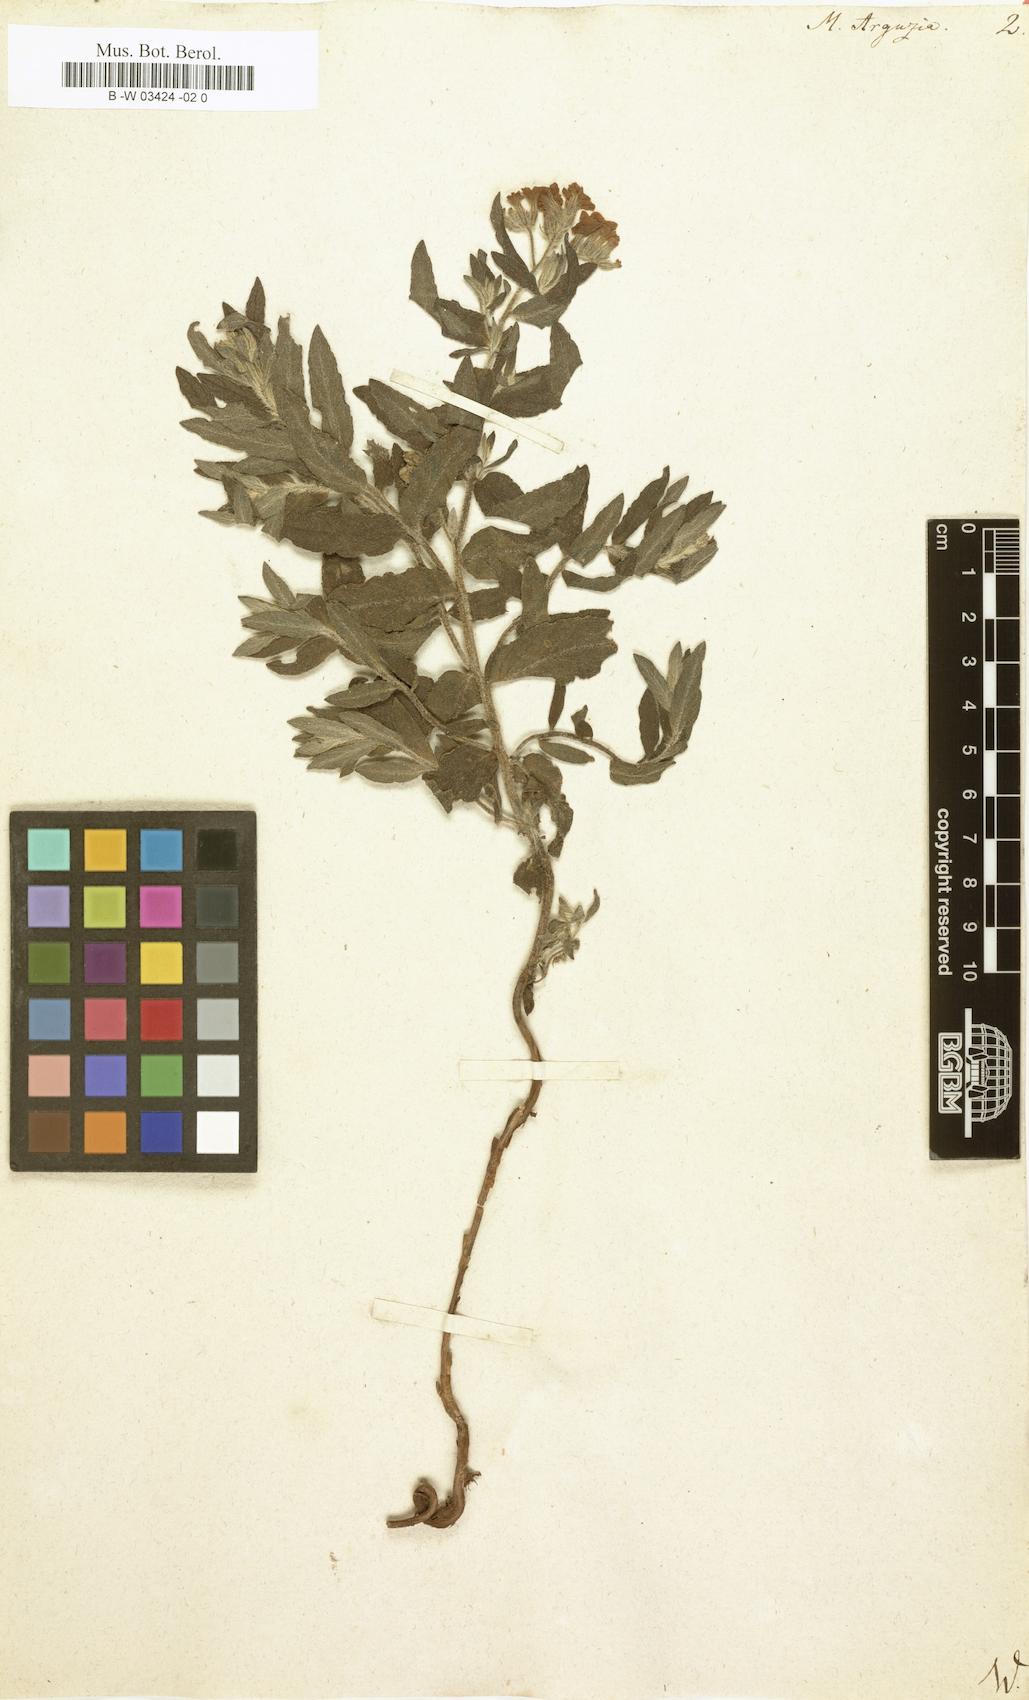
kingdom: Plantae
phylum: Tracheophyta
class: Magnoliopsida
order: Boraginales
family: Heliotropiaceae
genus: Tournefortia
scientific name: Tournefortia sibirica
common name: Siberian sea rosemary
